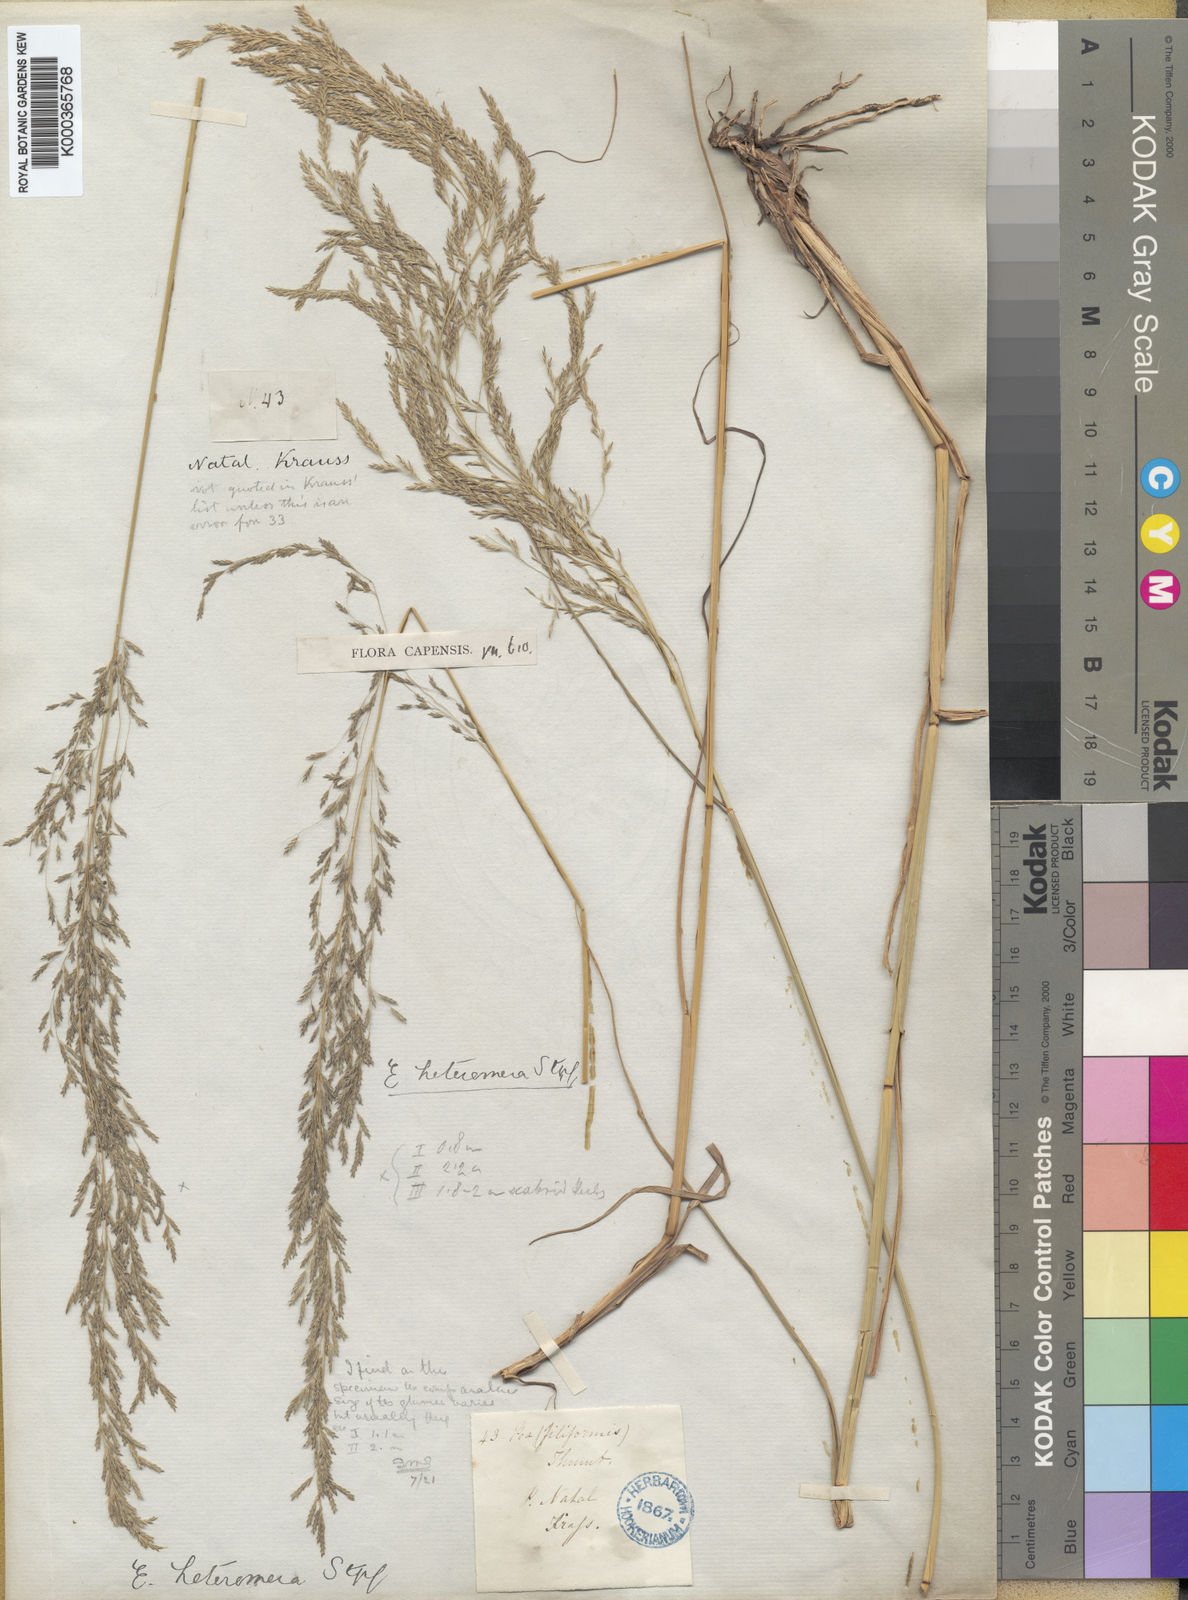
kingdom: Plantae
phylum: Tracheophyta
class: Liliopsida
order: Poales
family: Poaceae
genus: Eragrostis
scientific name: Eragrostis heteromera
